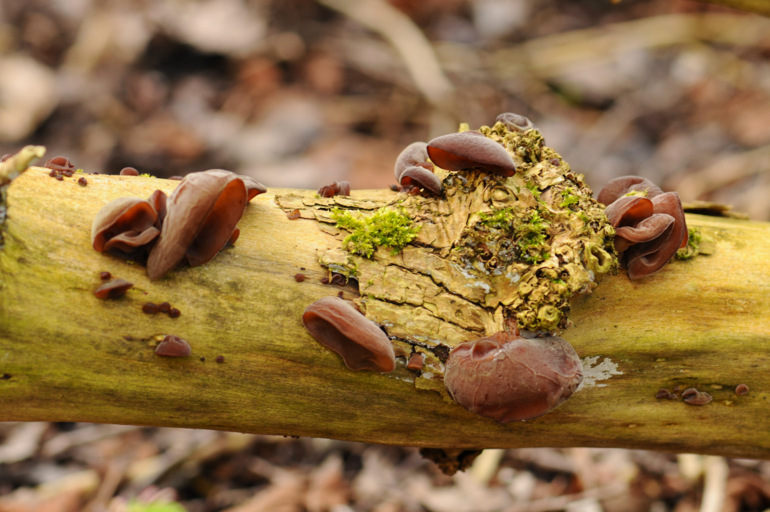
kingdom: Fungi
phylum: Basidiomycota
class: Agaricomycetes
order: Auriculariales
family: Auriculariaceae
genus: Auricularia
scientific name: Auricularia auricula-judae
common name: almindelig judasøre
